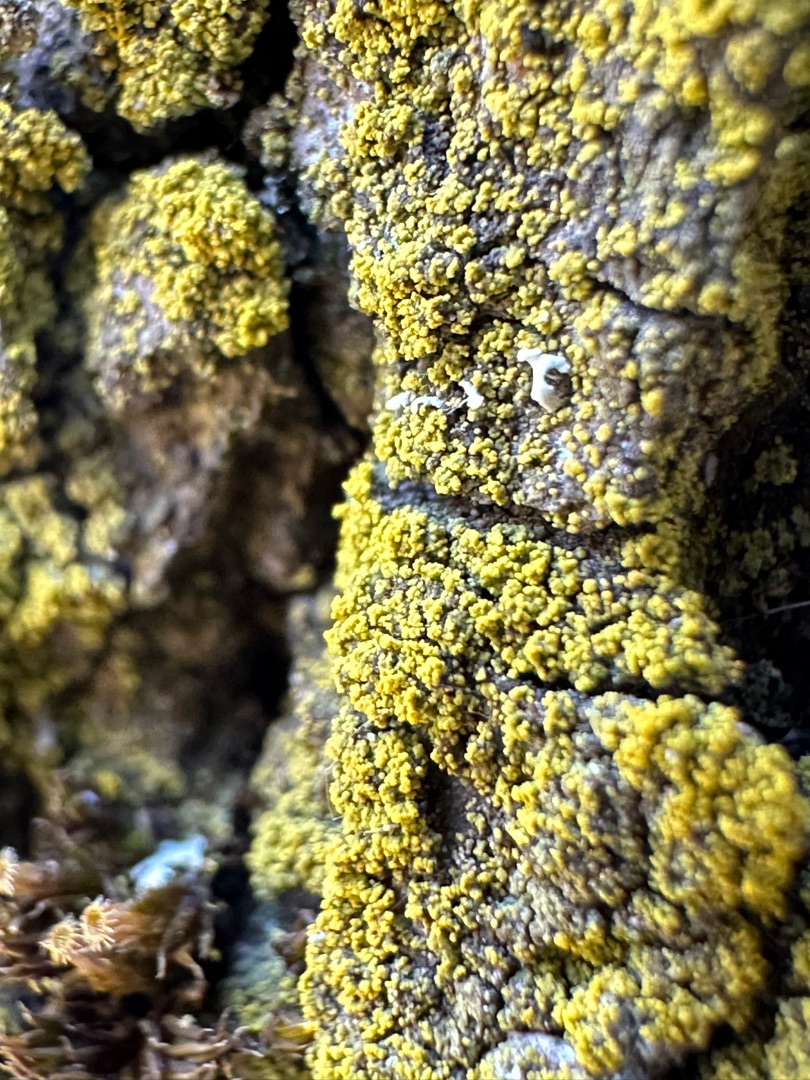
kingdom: Fungi
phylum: Ascomycota
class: Candelariomycetes
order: Candelariales
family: Candelariaceae
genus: Candelaria
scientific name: Candelaria
